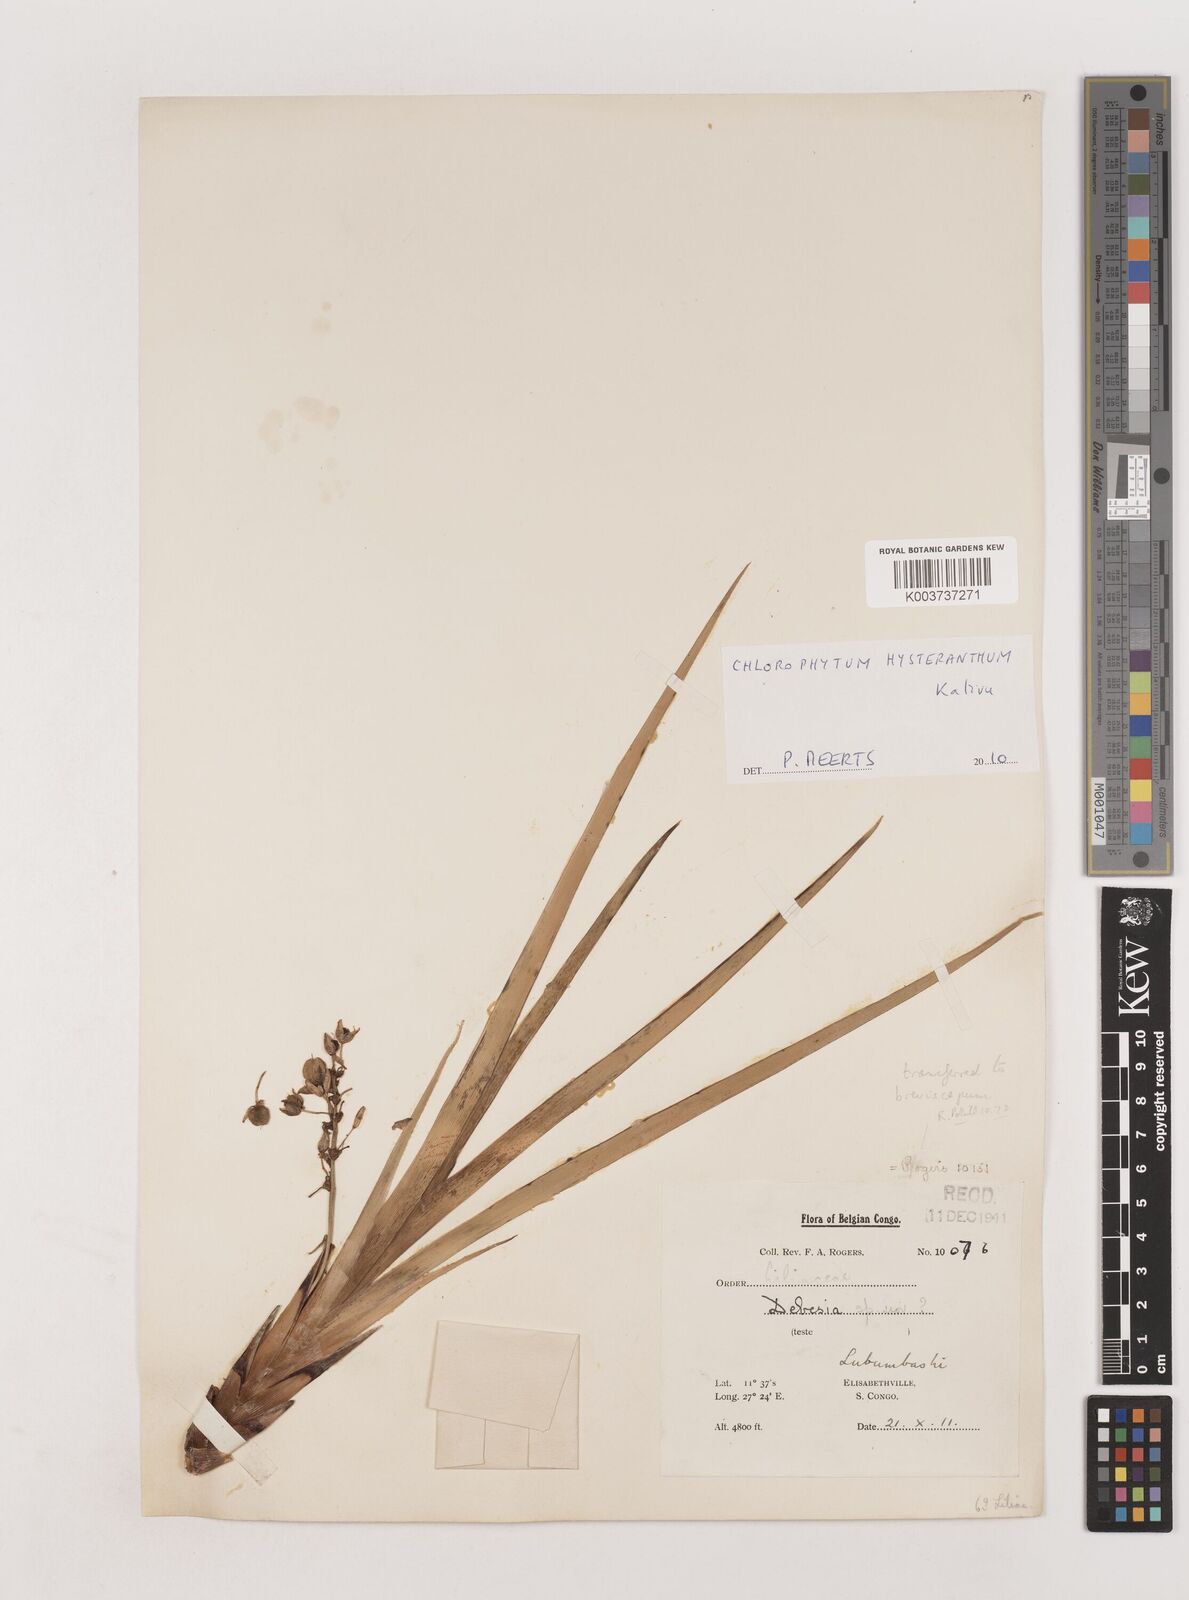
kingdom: Plantae
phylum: Tracheophyta
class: Liliopsida
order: Asparagales
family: Asparagaceae
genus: Chlorophytum
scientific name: Chlorophytum hysteranthum
